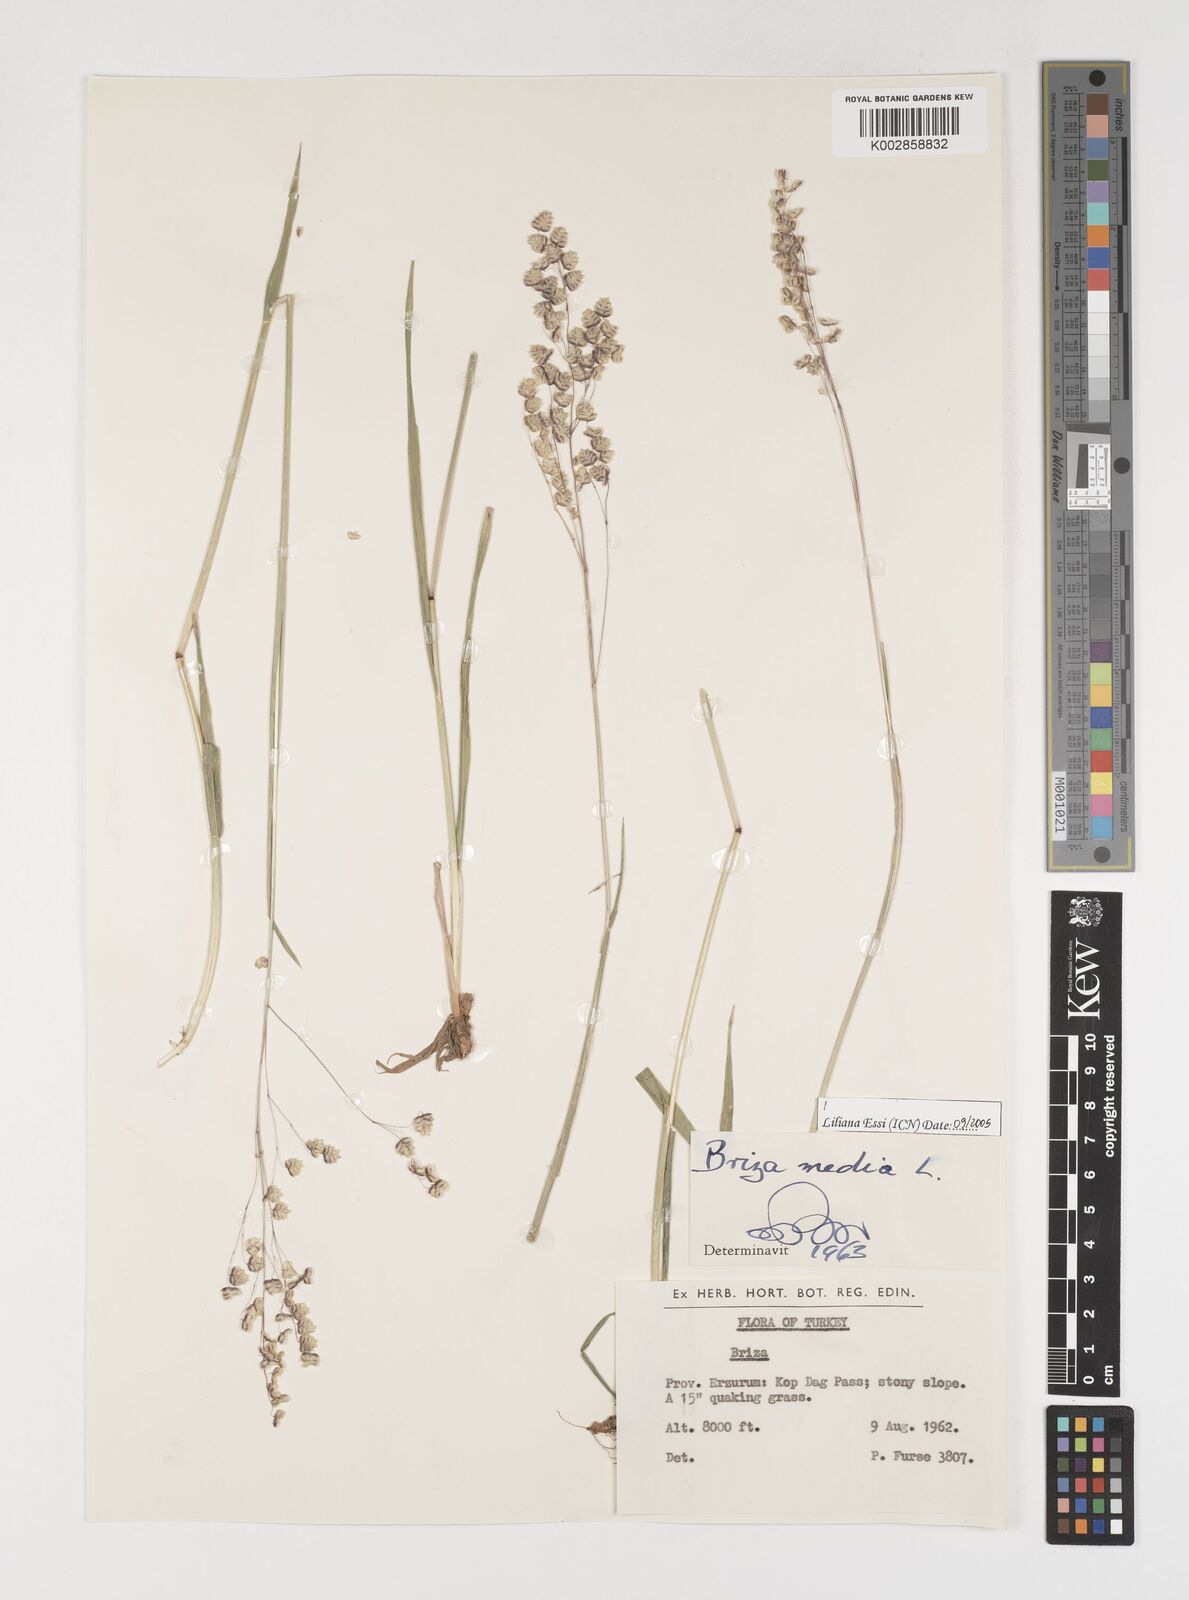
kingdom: Plantae
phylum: Tracheophyta
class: Liliopsida
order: Poales
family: Poaceae
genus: Briza
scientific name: Briza media
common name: Quaking grass
